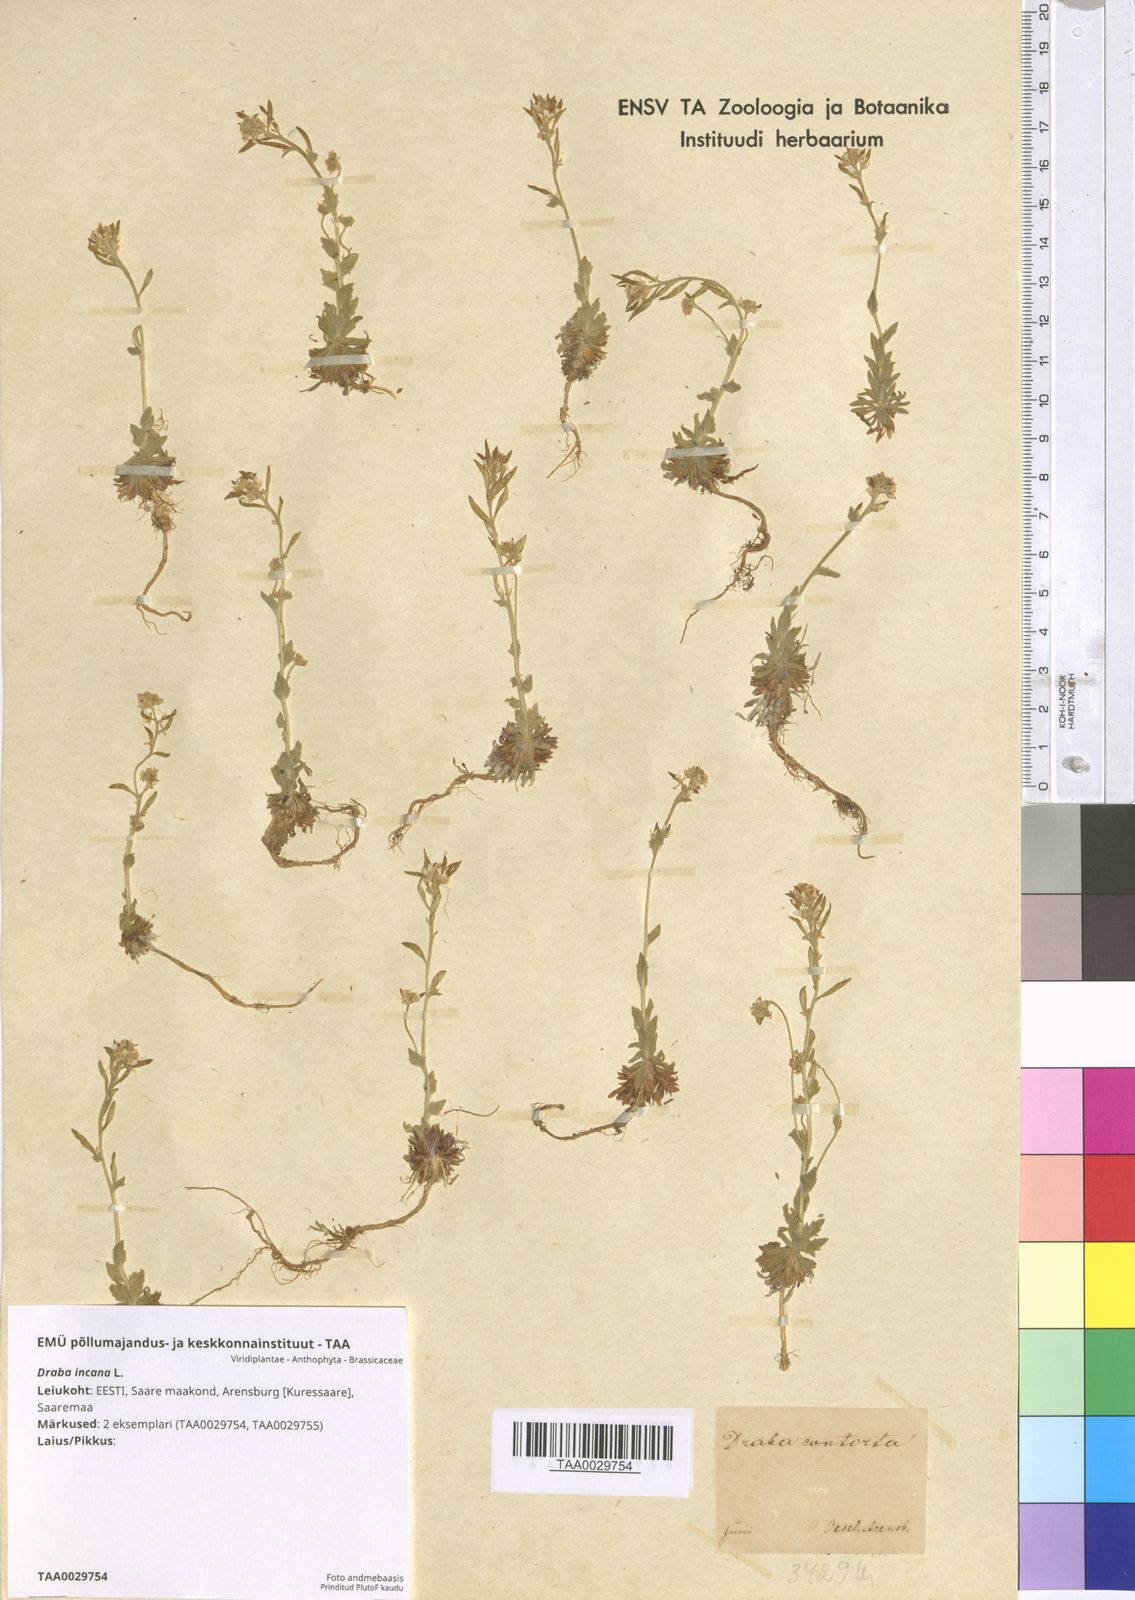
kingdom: Plantae
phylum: Tracheophyta
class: Magnoliopsida
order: Brassicales
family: Brassicaceae
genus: Draba
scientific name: Draba incana
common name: Hoary whitlow-grass
